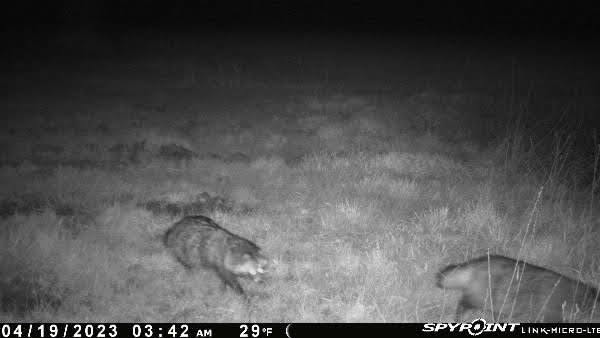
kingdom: Animalia
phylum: Chordata
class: Mammalia
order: Carnivora
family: Canidae
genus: Nyctereutes
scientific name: Nyctereutes procyonoides
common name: Mårhund
